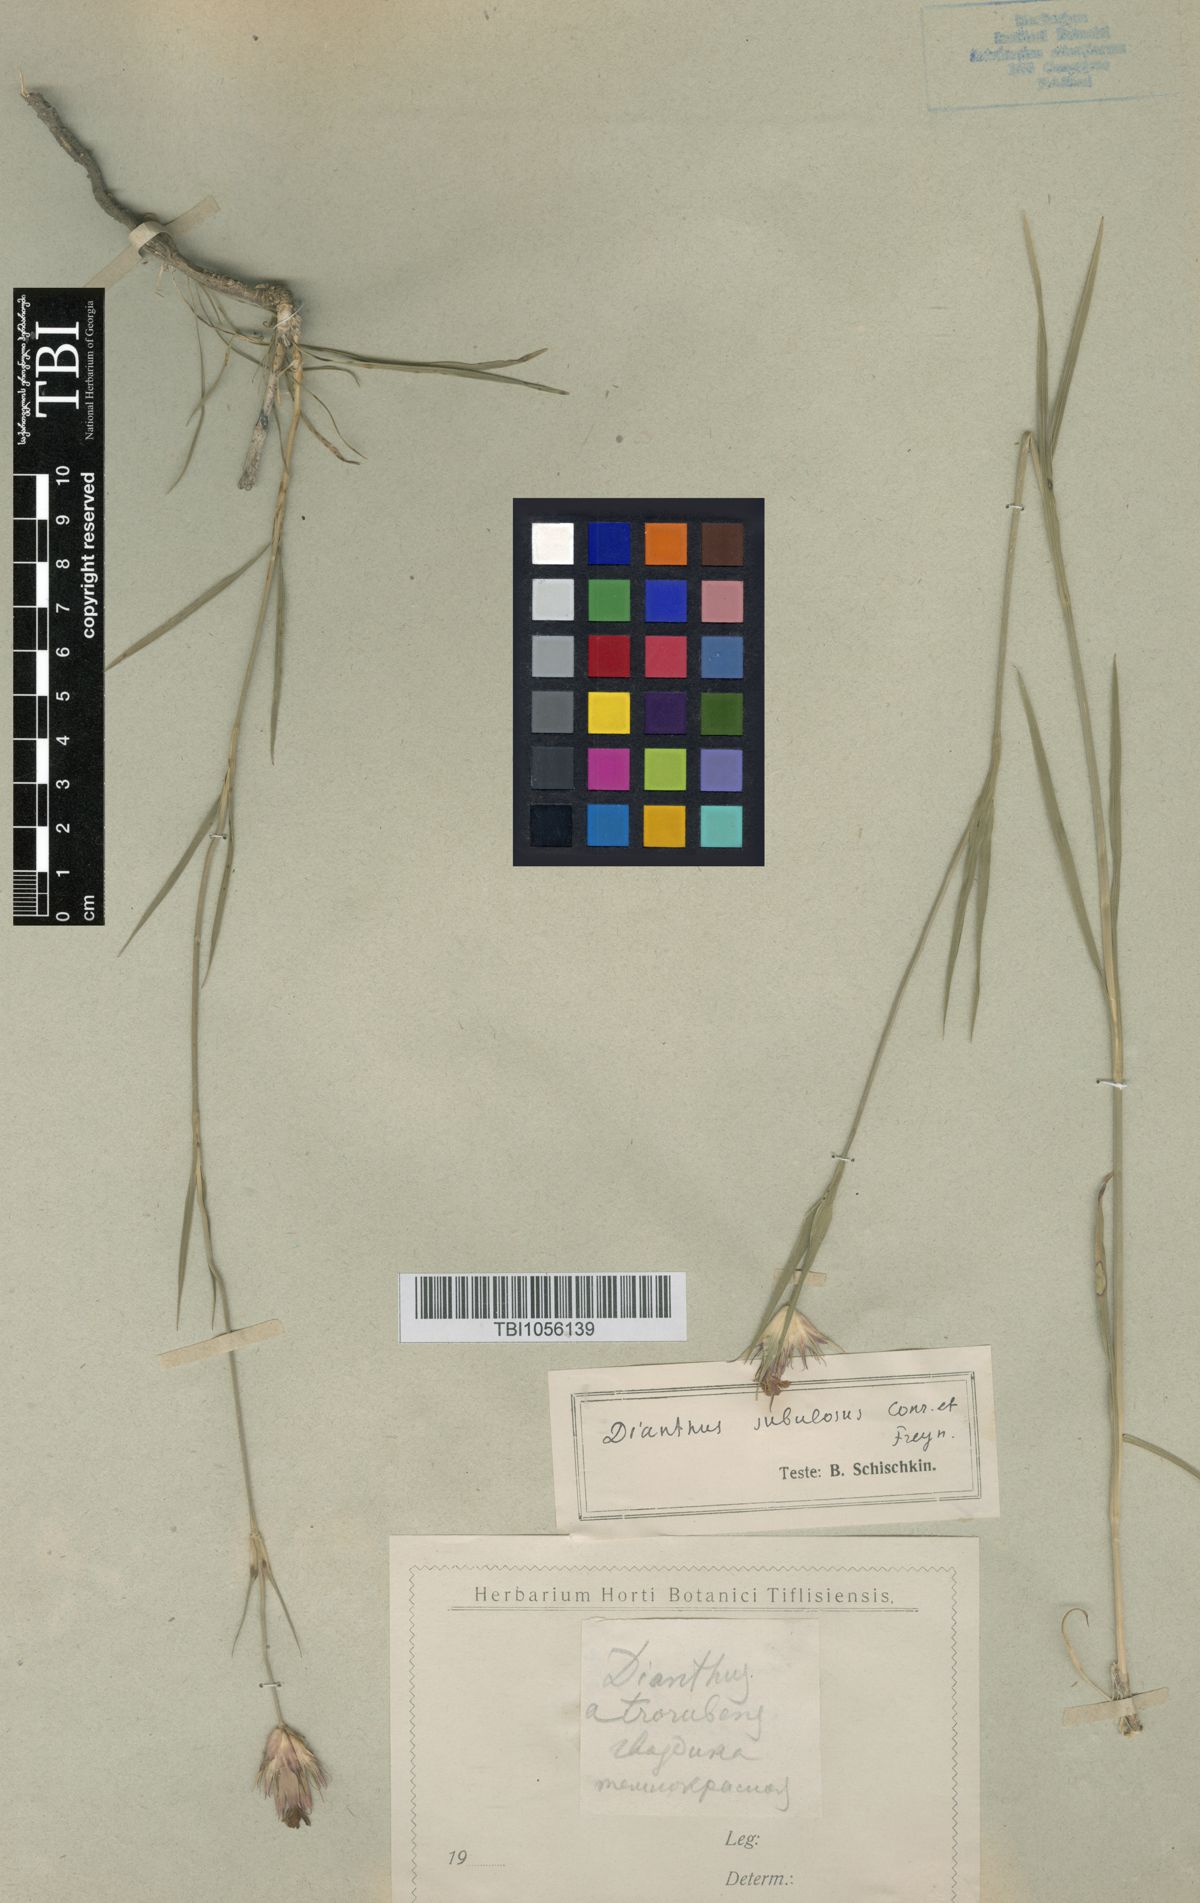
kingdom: Plantae
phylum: Tracheophyta
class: Magnoliopsida
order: Caryophyllales
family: Caryophyllaceae
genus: Dianthus
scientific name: Dianthus subulosus
